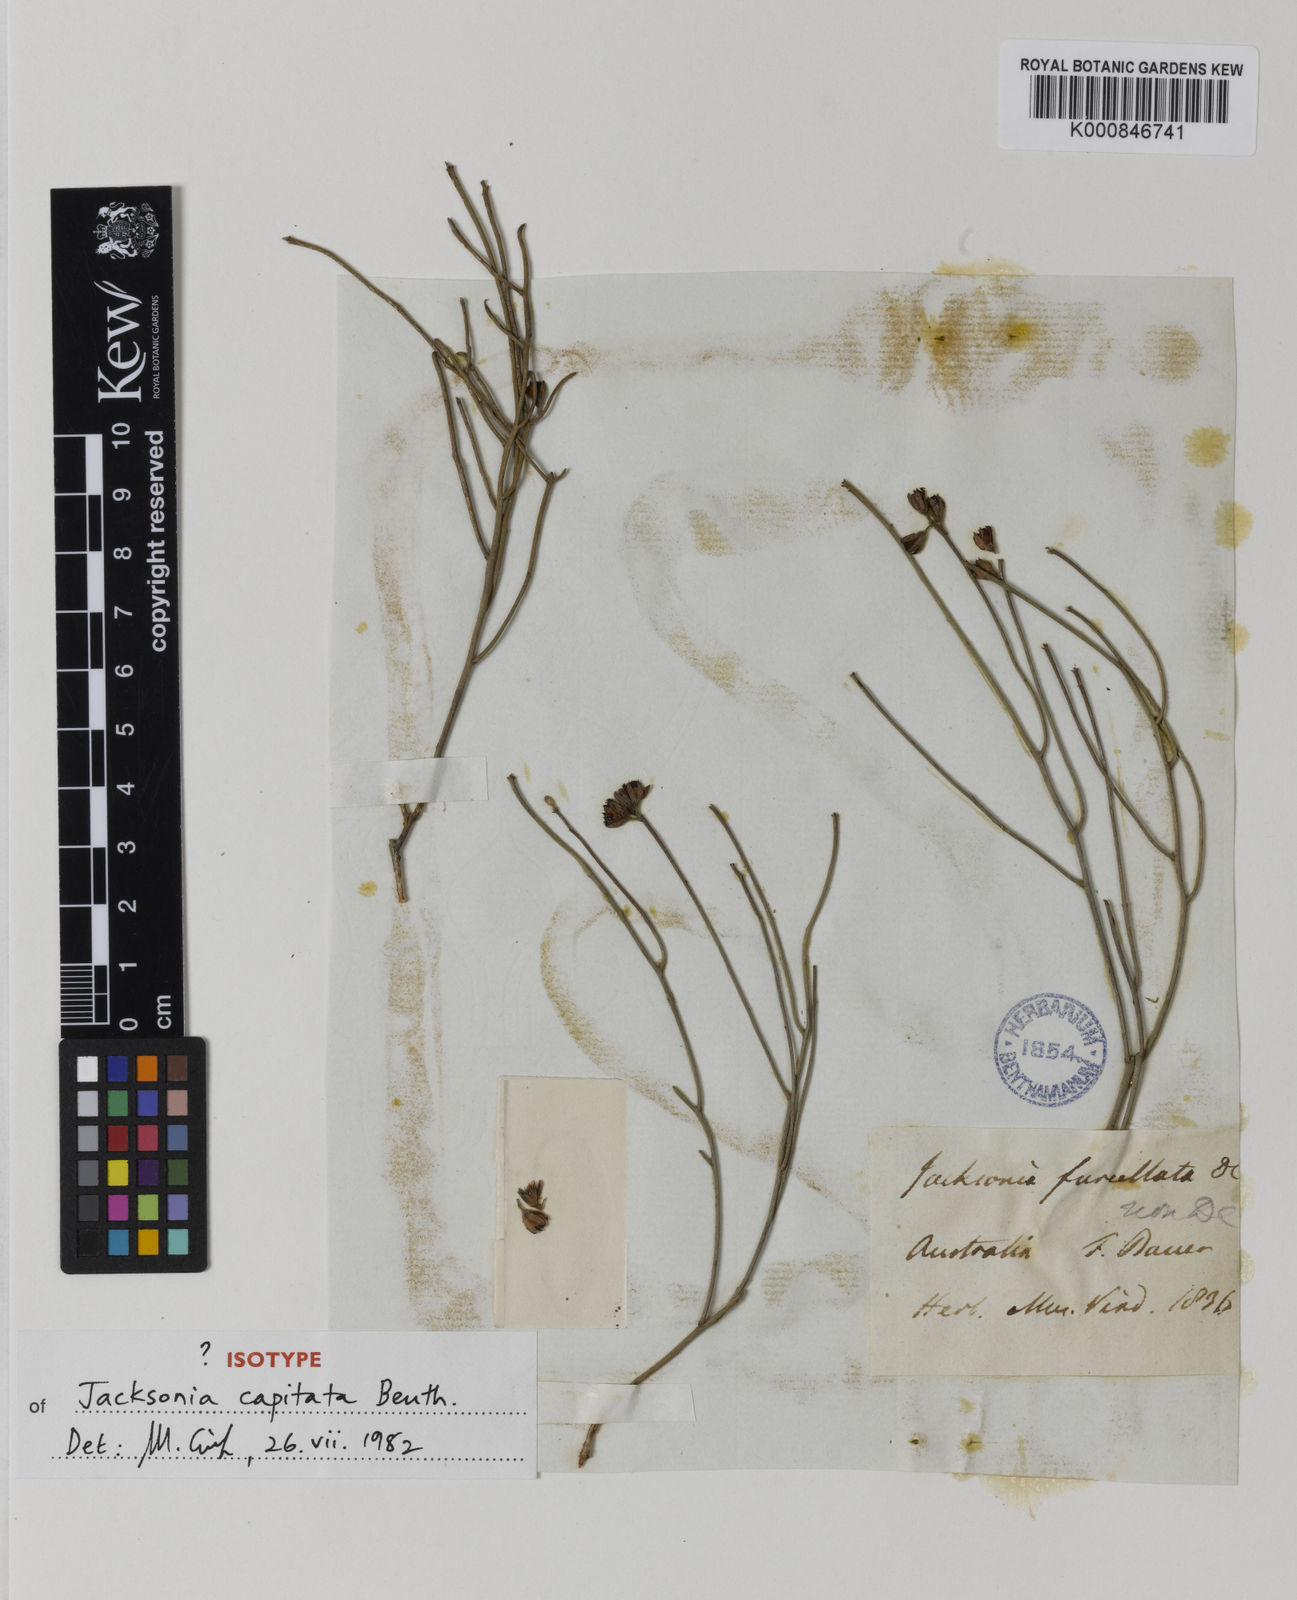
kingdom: Plantae
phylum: Tracheophyta
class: Magnoliopsida
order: Fabales
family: Fabaceae
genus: Jacksonia
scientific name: Jacksonia capitata
